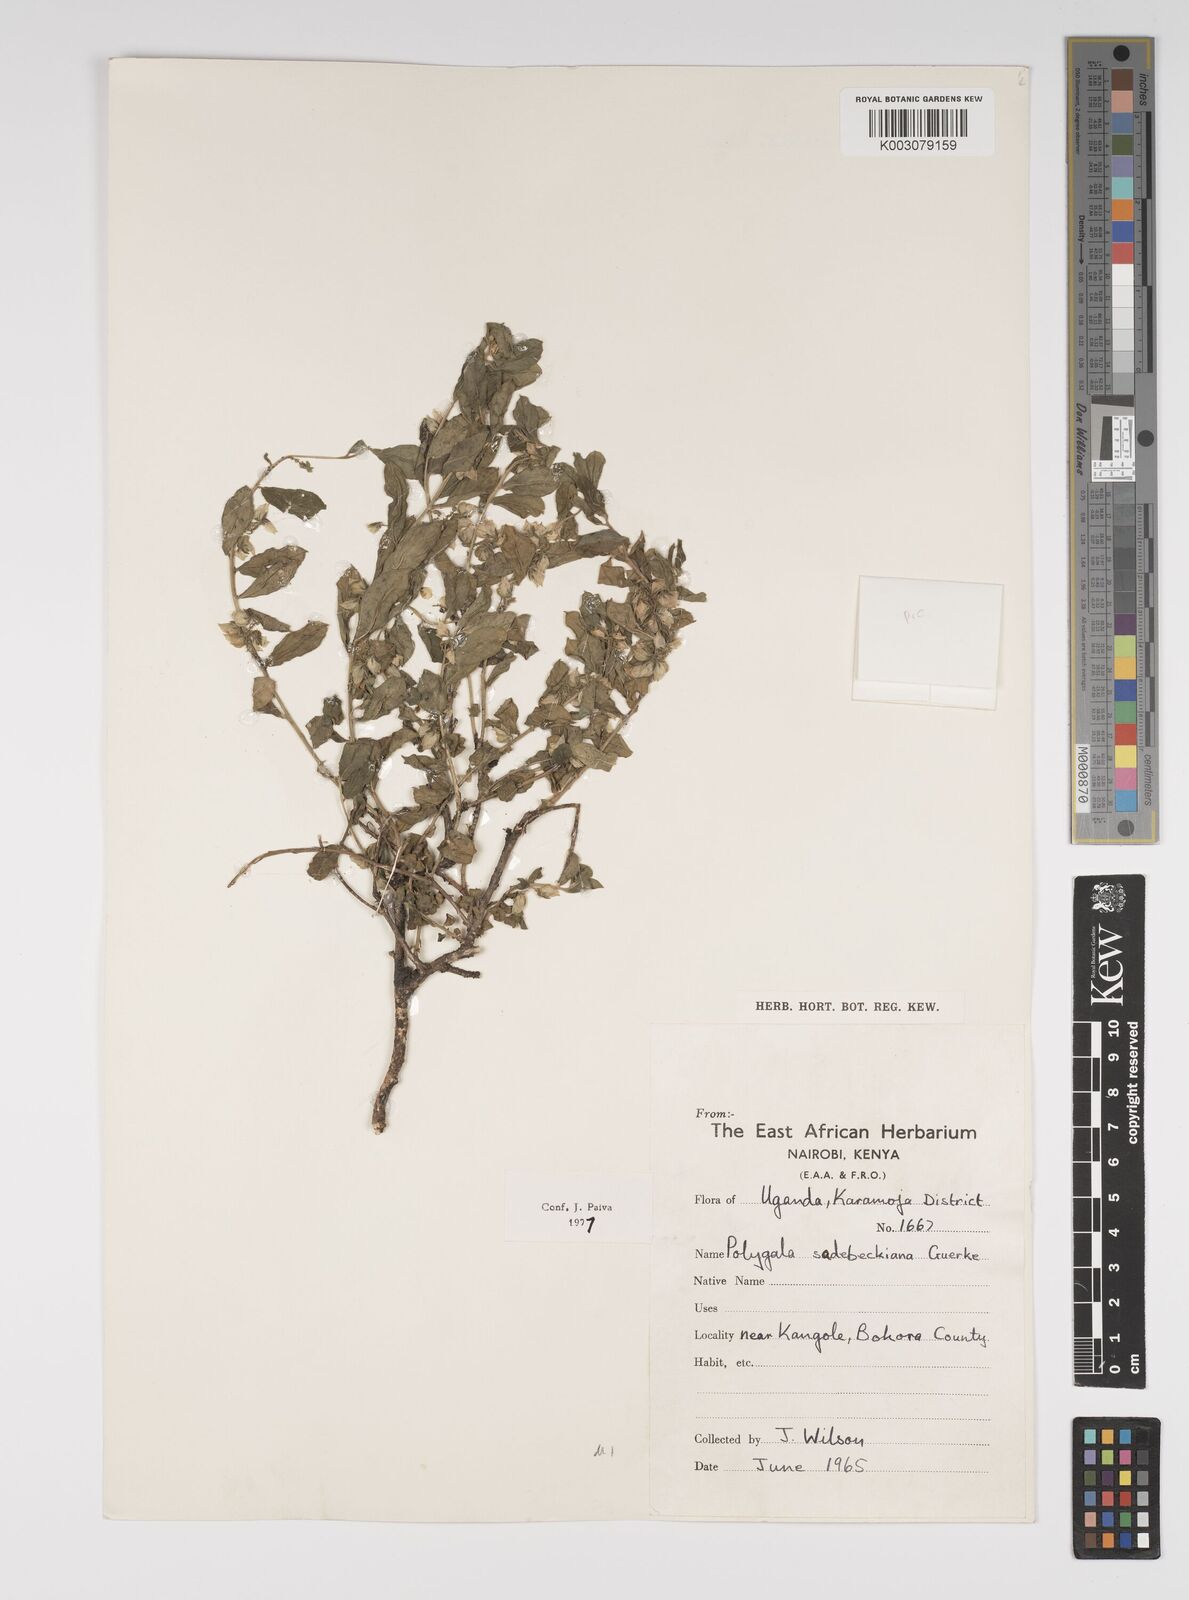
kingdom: Plantae
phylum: Tracheophyta
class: Magnoliopsida
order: Fabales
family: Polygalaceae
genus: Polygala
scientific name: Polygala sadebeckiana
